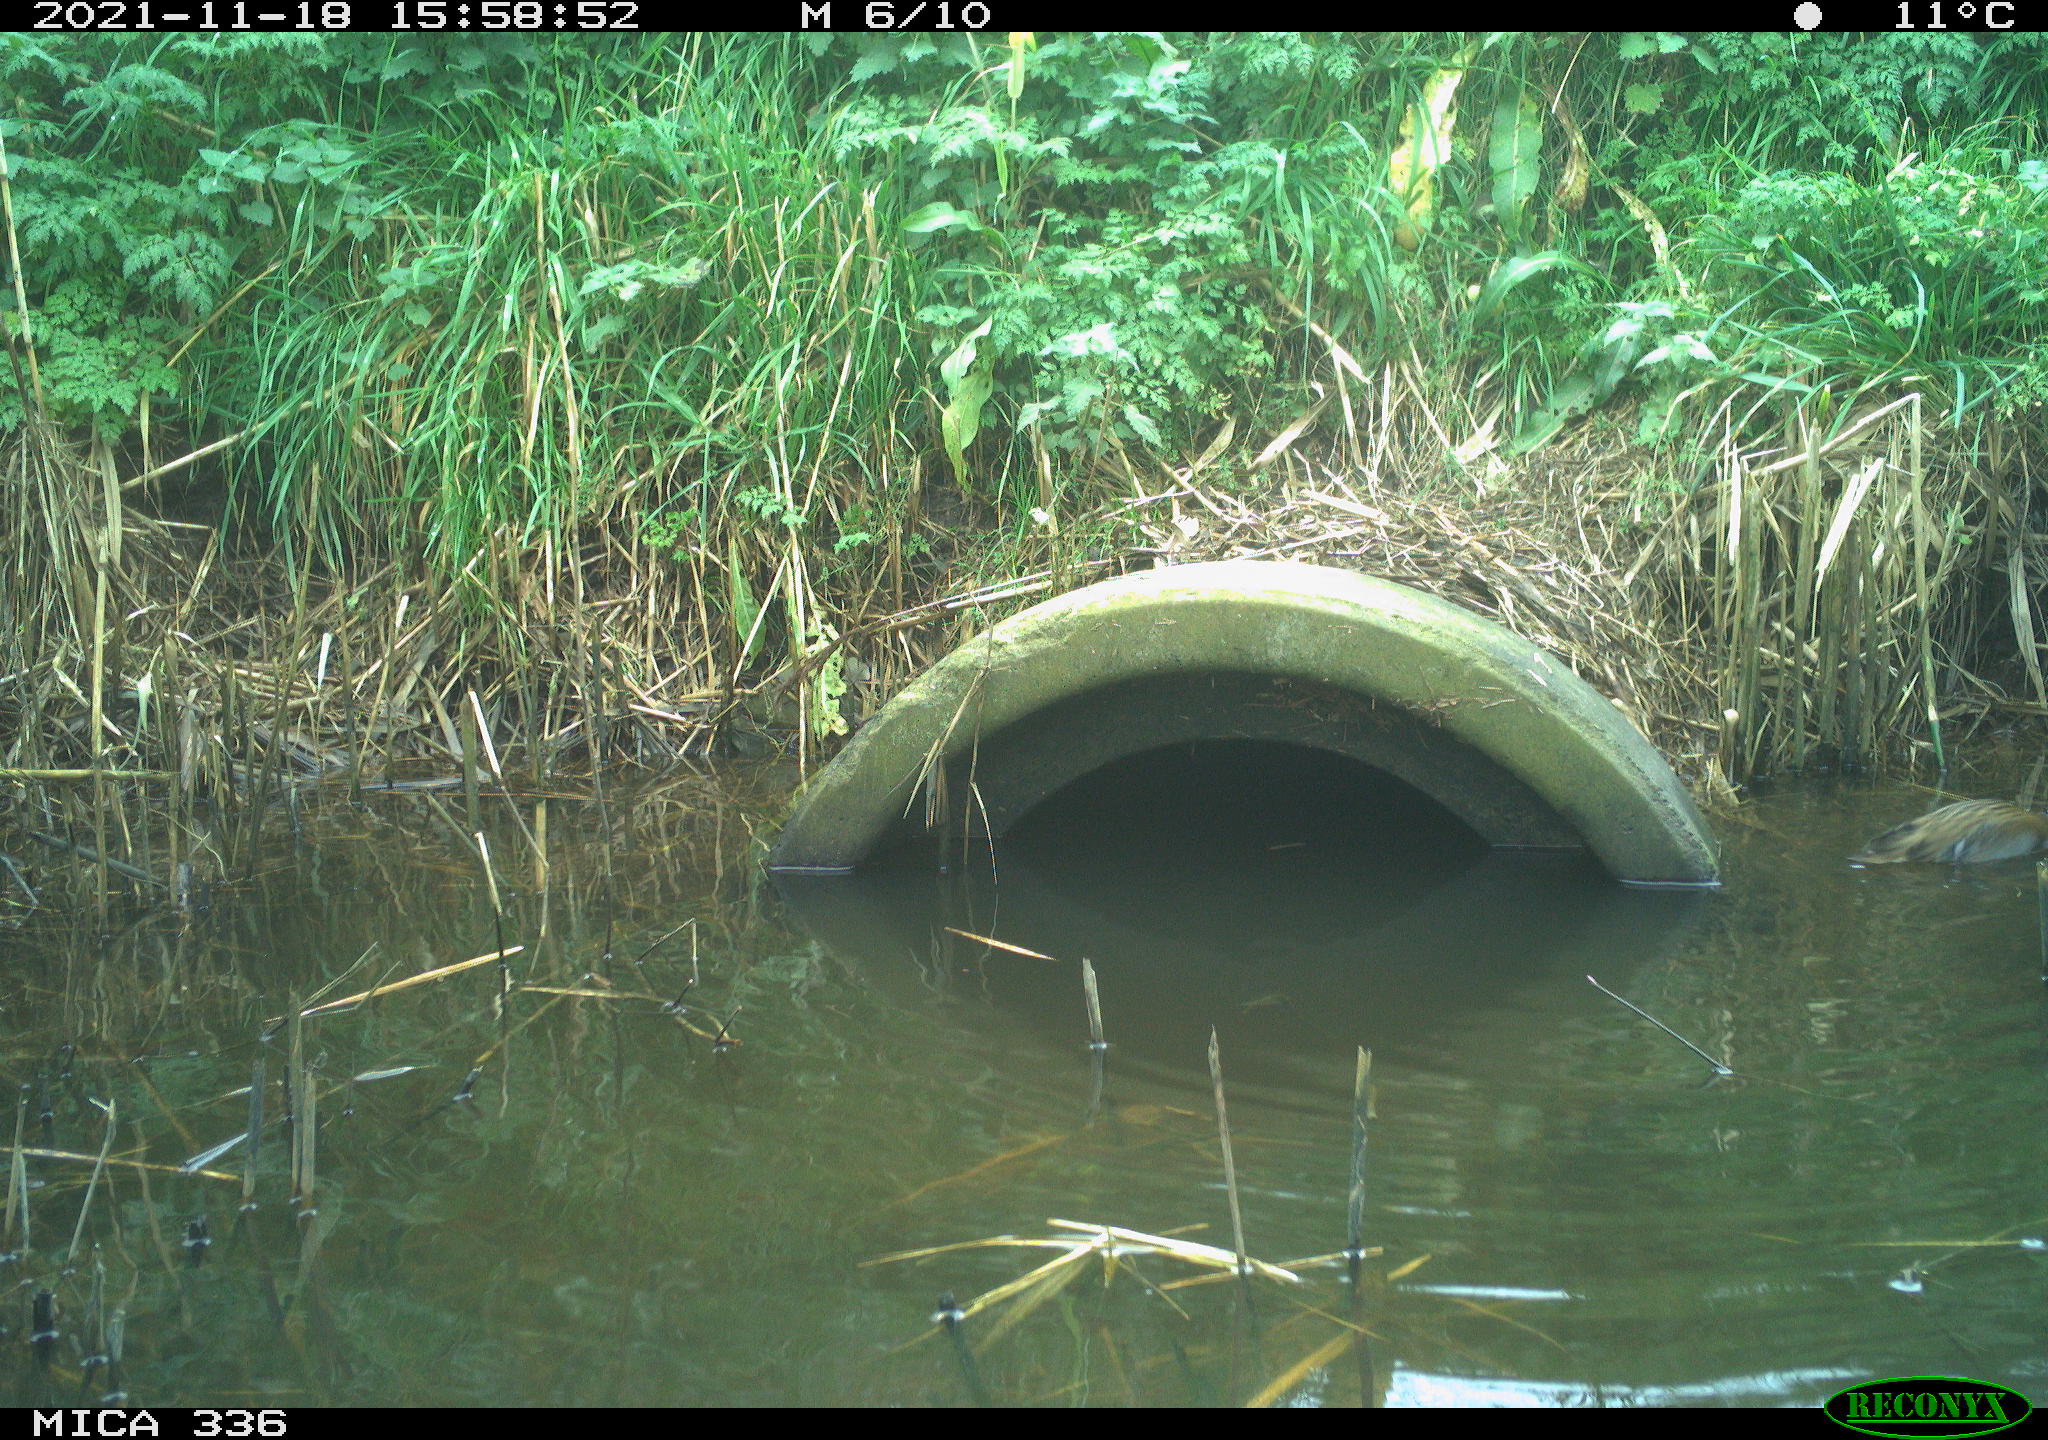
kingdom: Animalia
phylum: Chordata
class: Aves
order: Gruiformes
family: Rallidae
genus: Gallinula
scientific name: Gallinula chloropus
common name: Common moorhen
